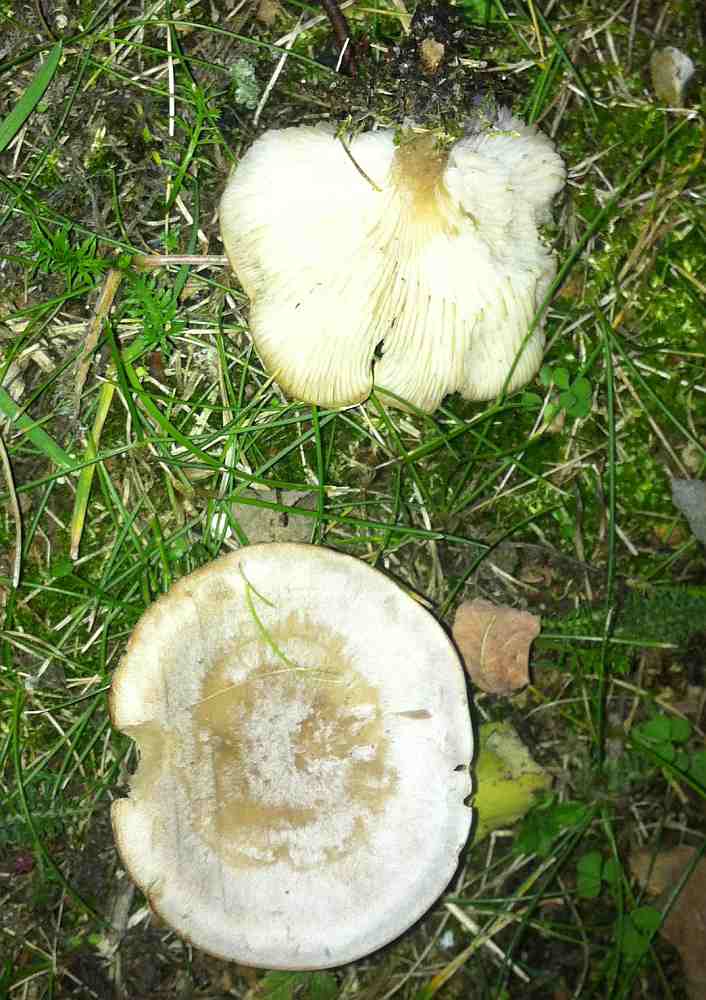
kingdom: Fungi
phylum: Basidiomycota
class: Agaricomycetes
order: Agaricales
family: Tricholomataceae
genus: Clitocybe
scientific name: Clitocybe rivulosa
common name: eng-tragthat
